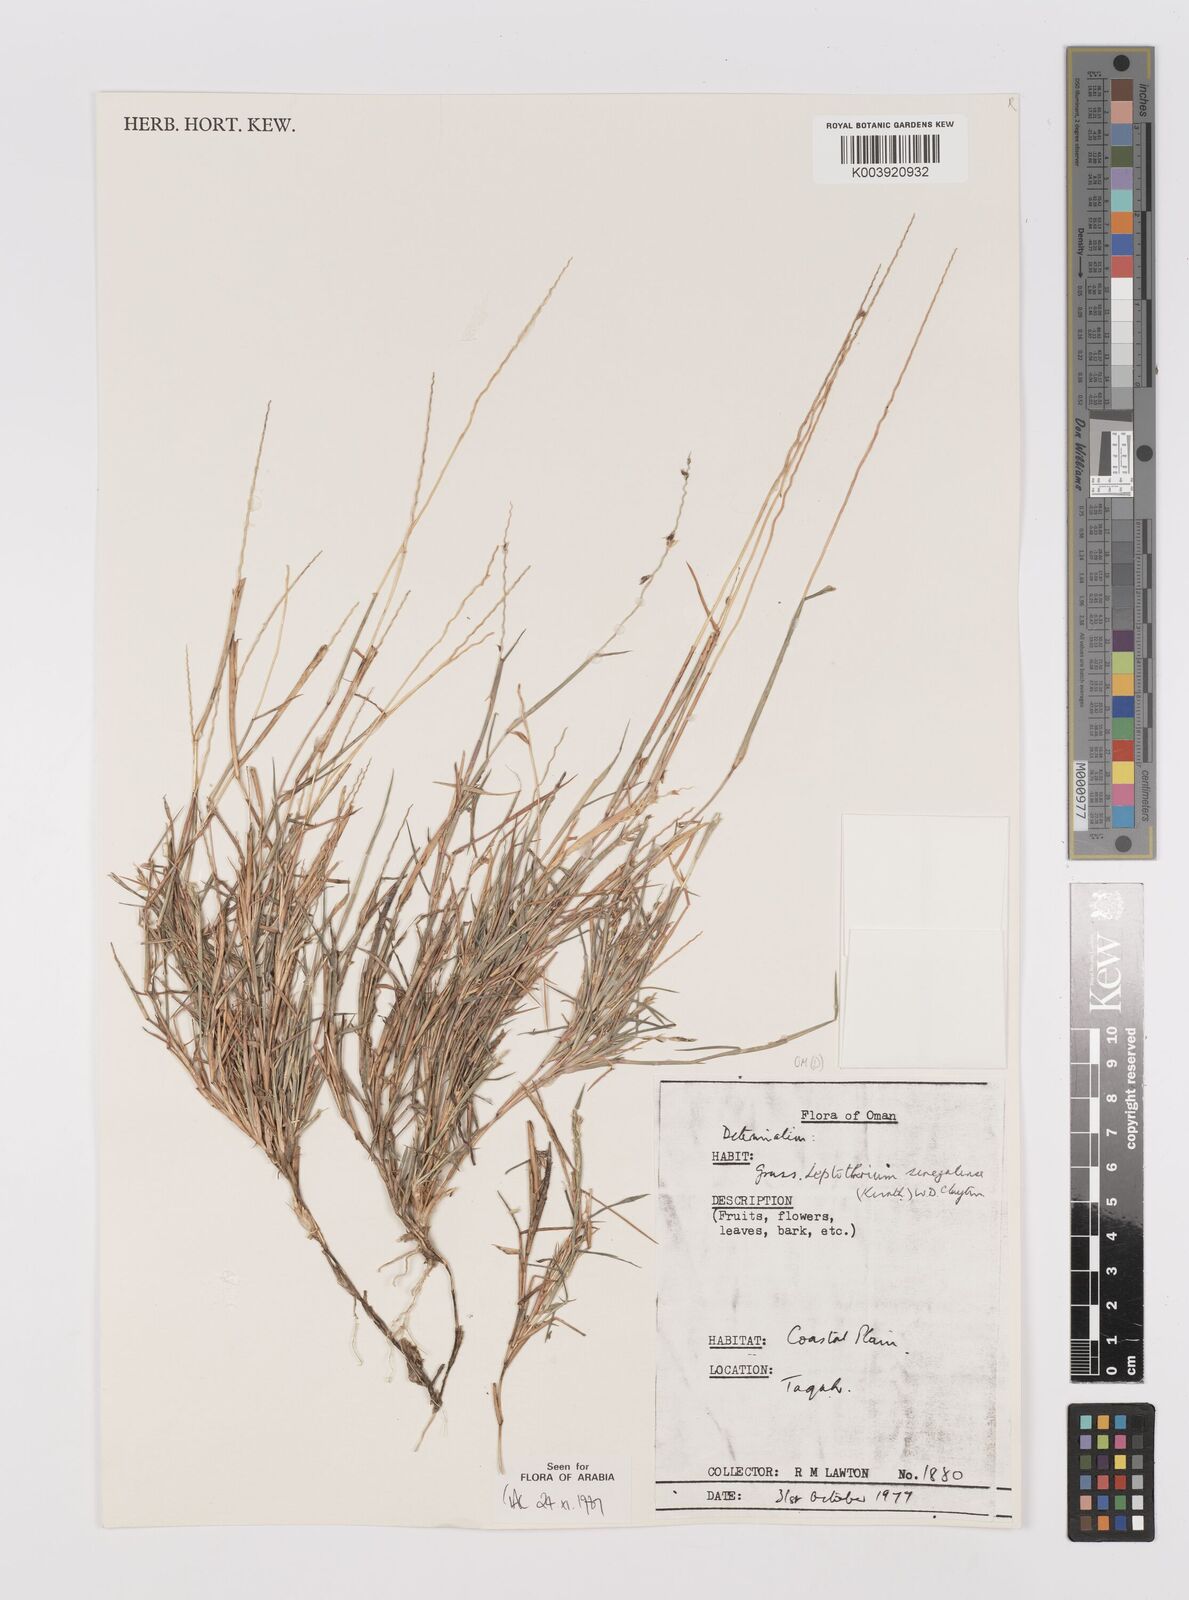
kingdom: Plantae
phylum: Tracheophyta
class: Liliopsida
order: Poales
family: Poaceae
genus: Leptothrium
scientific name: Leptothrium senegalense
